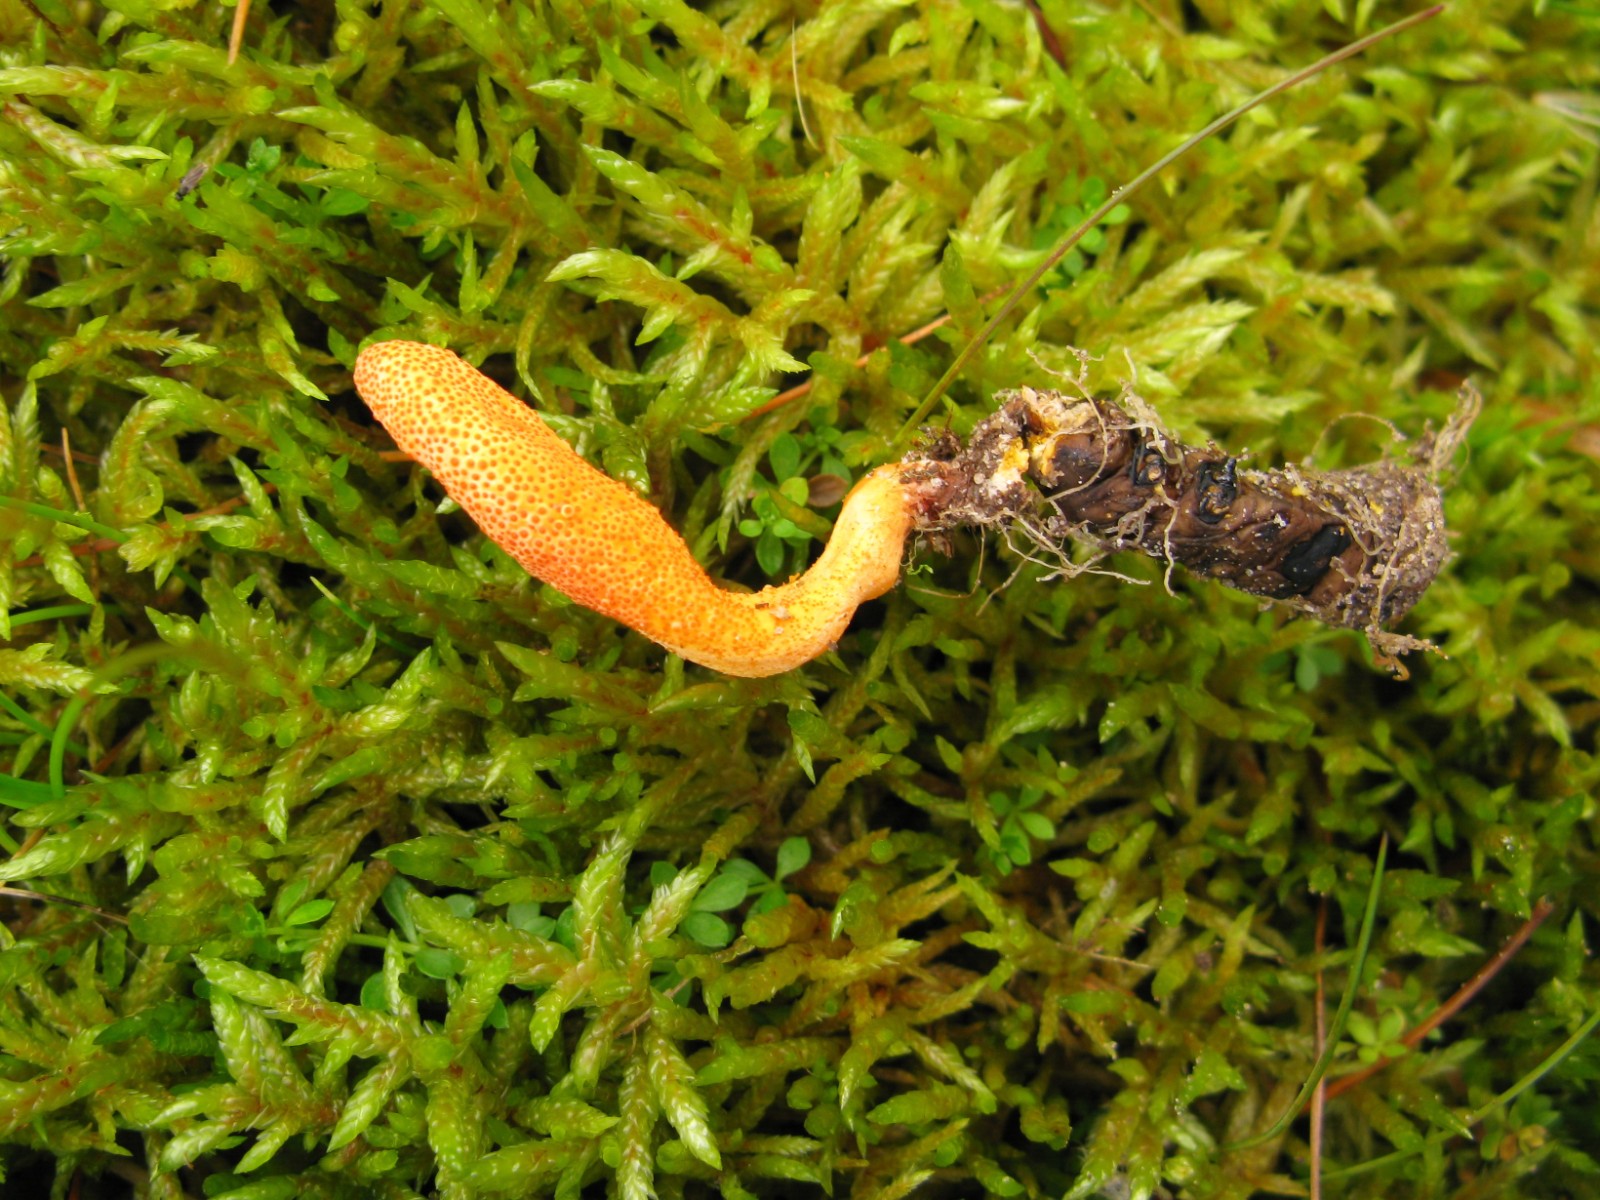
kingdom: Fungi
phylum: Ascomycota
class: Sordariomycetes
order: Hypocreales
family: Cordycipitaceae
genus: Cordyceps
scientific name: Cordyceps militaris
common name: puppe-snyltekølle
